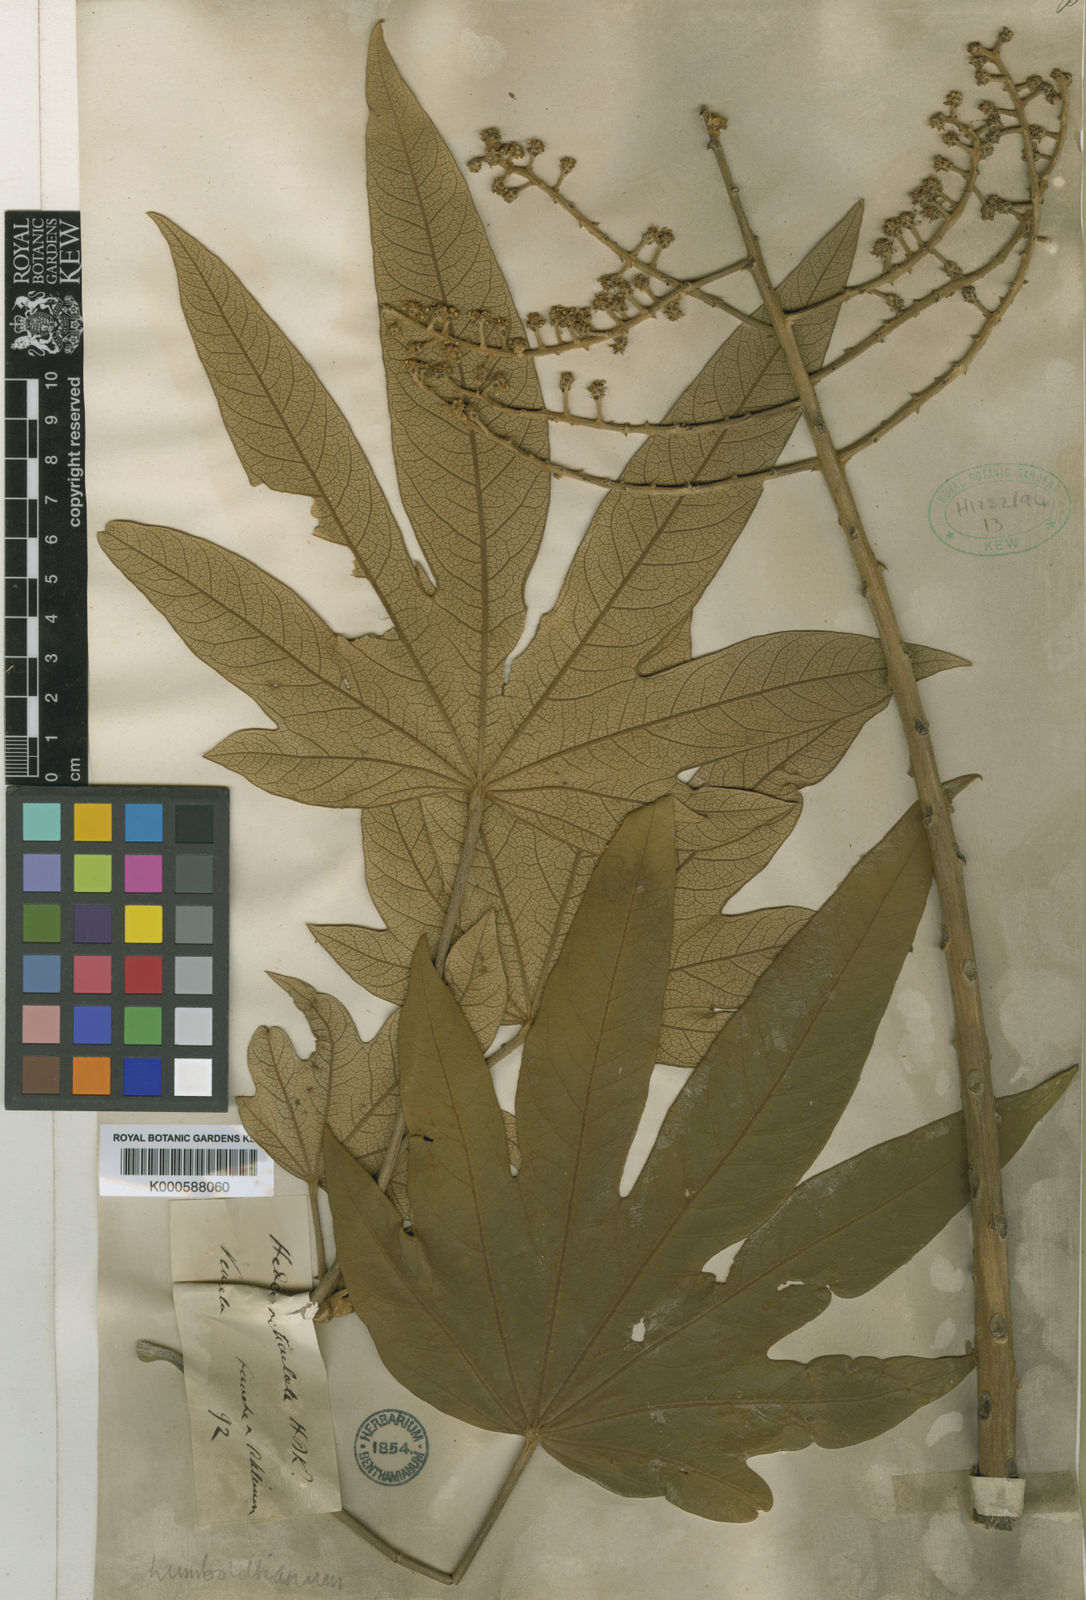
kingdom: Plantae
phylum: Tracheophyta
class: Magnoliopsida
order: Apiales
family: Araliaceae
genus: Oreopanax
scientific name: Oreopanax
